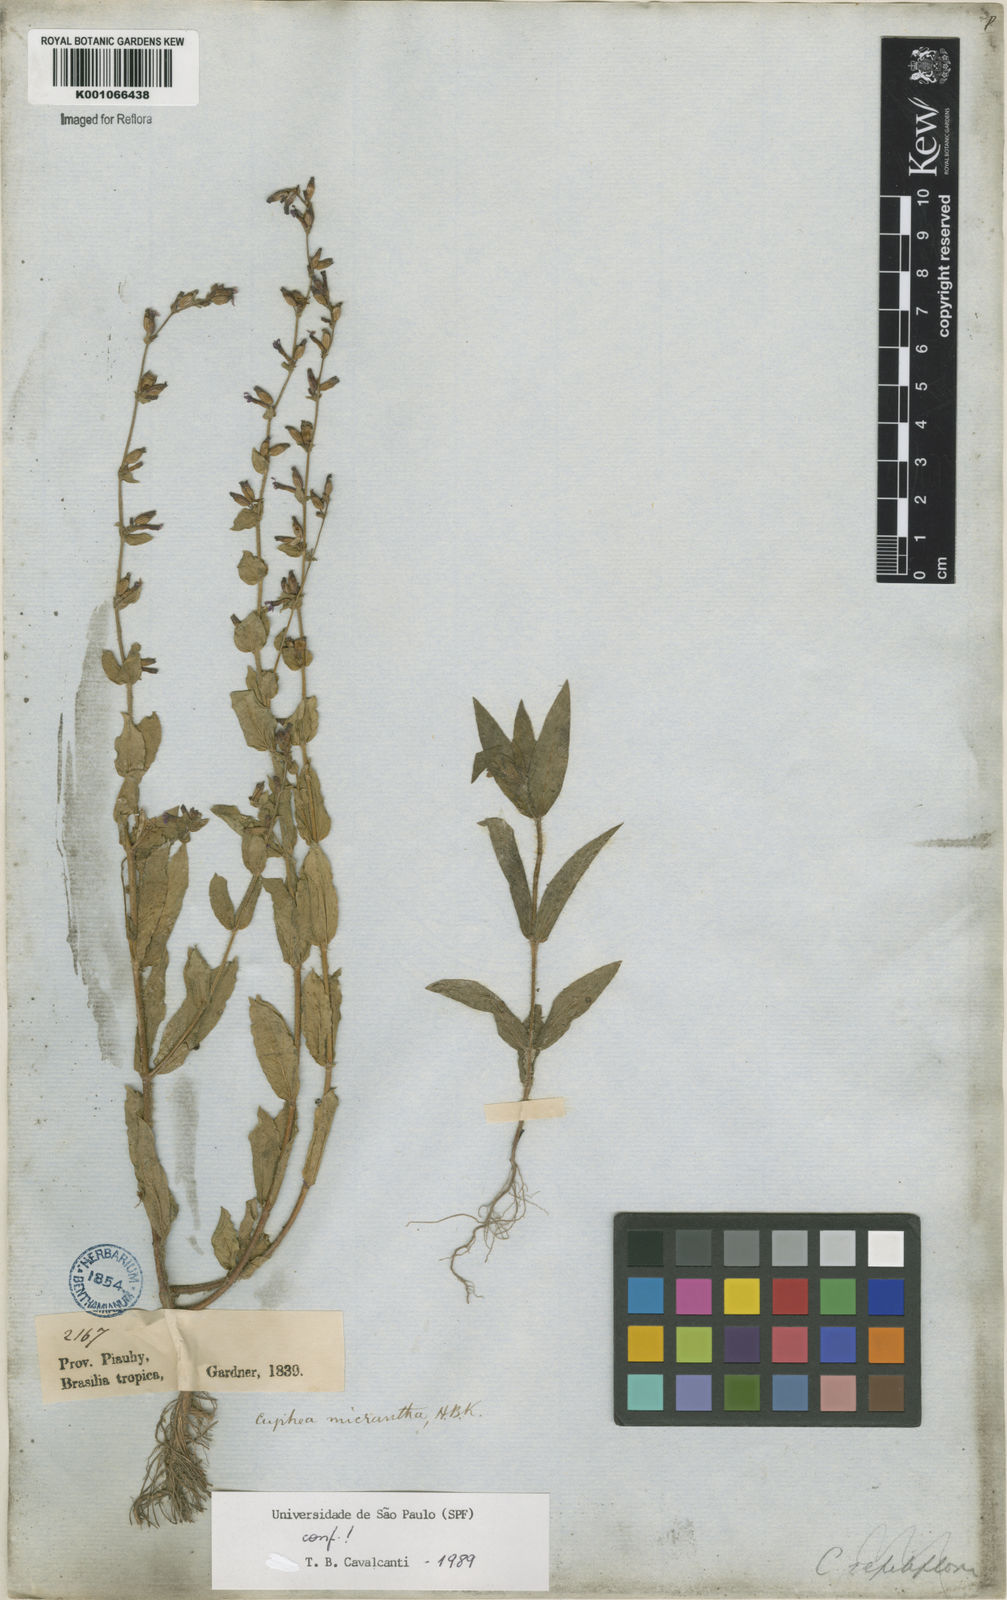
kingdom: Plantae
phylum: Tracheophyta
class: Magnoliopsida
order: Myrtales
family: Lythraceae
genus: Cuphea
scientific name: Cuphea micrantha
